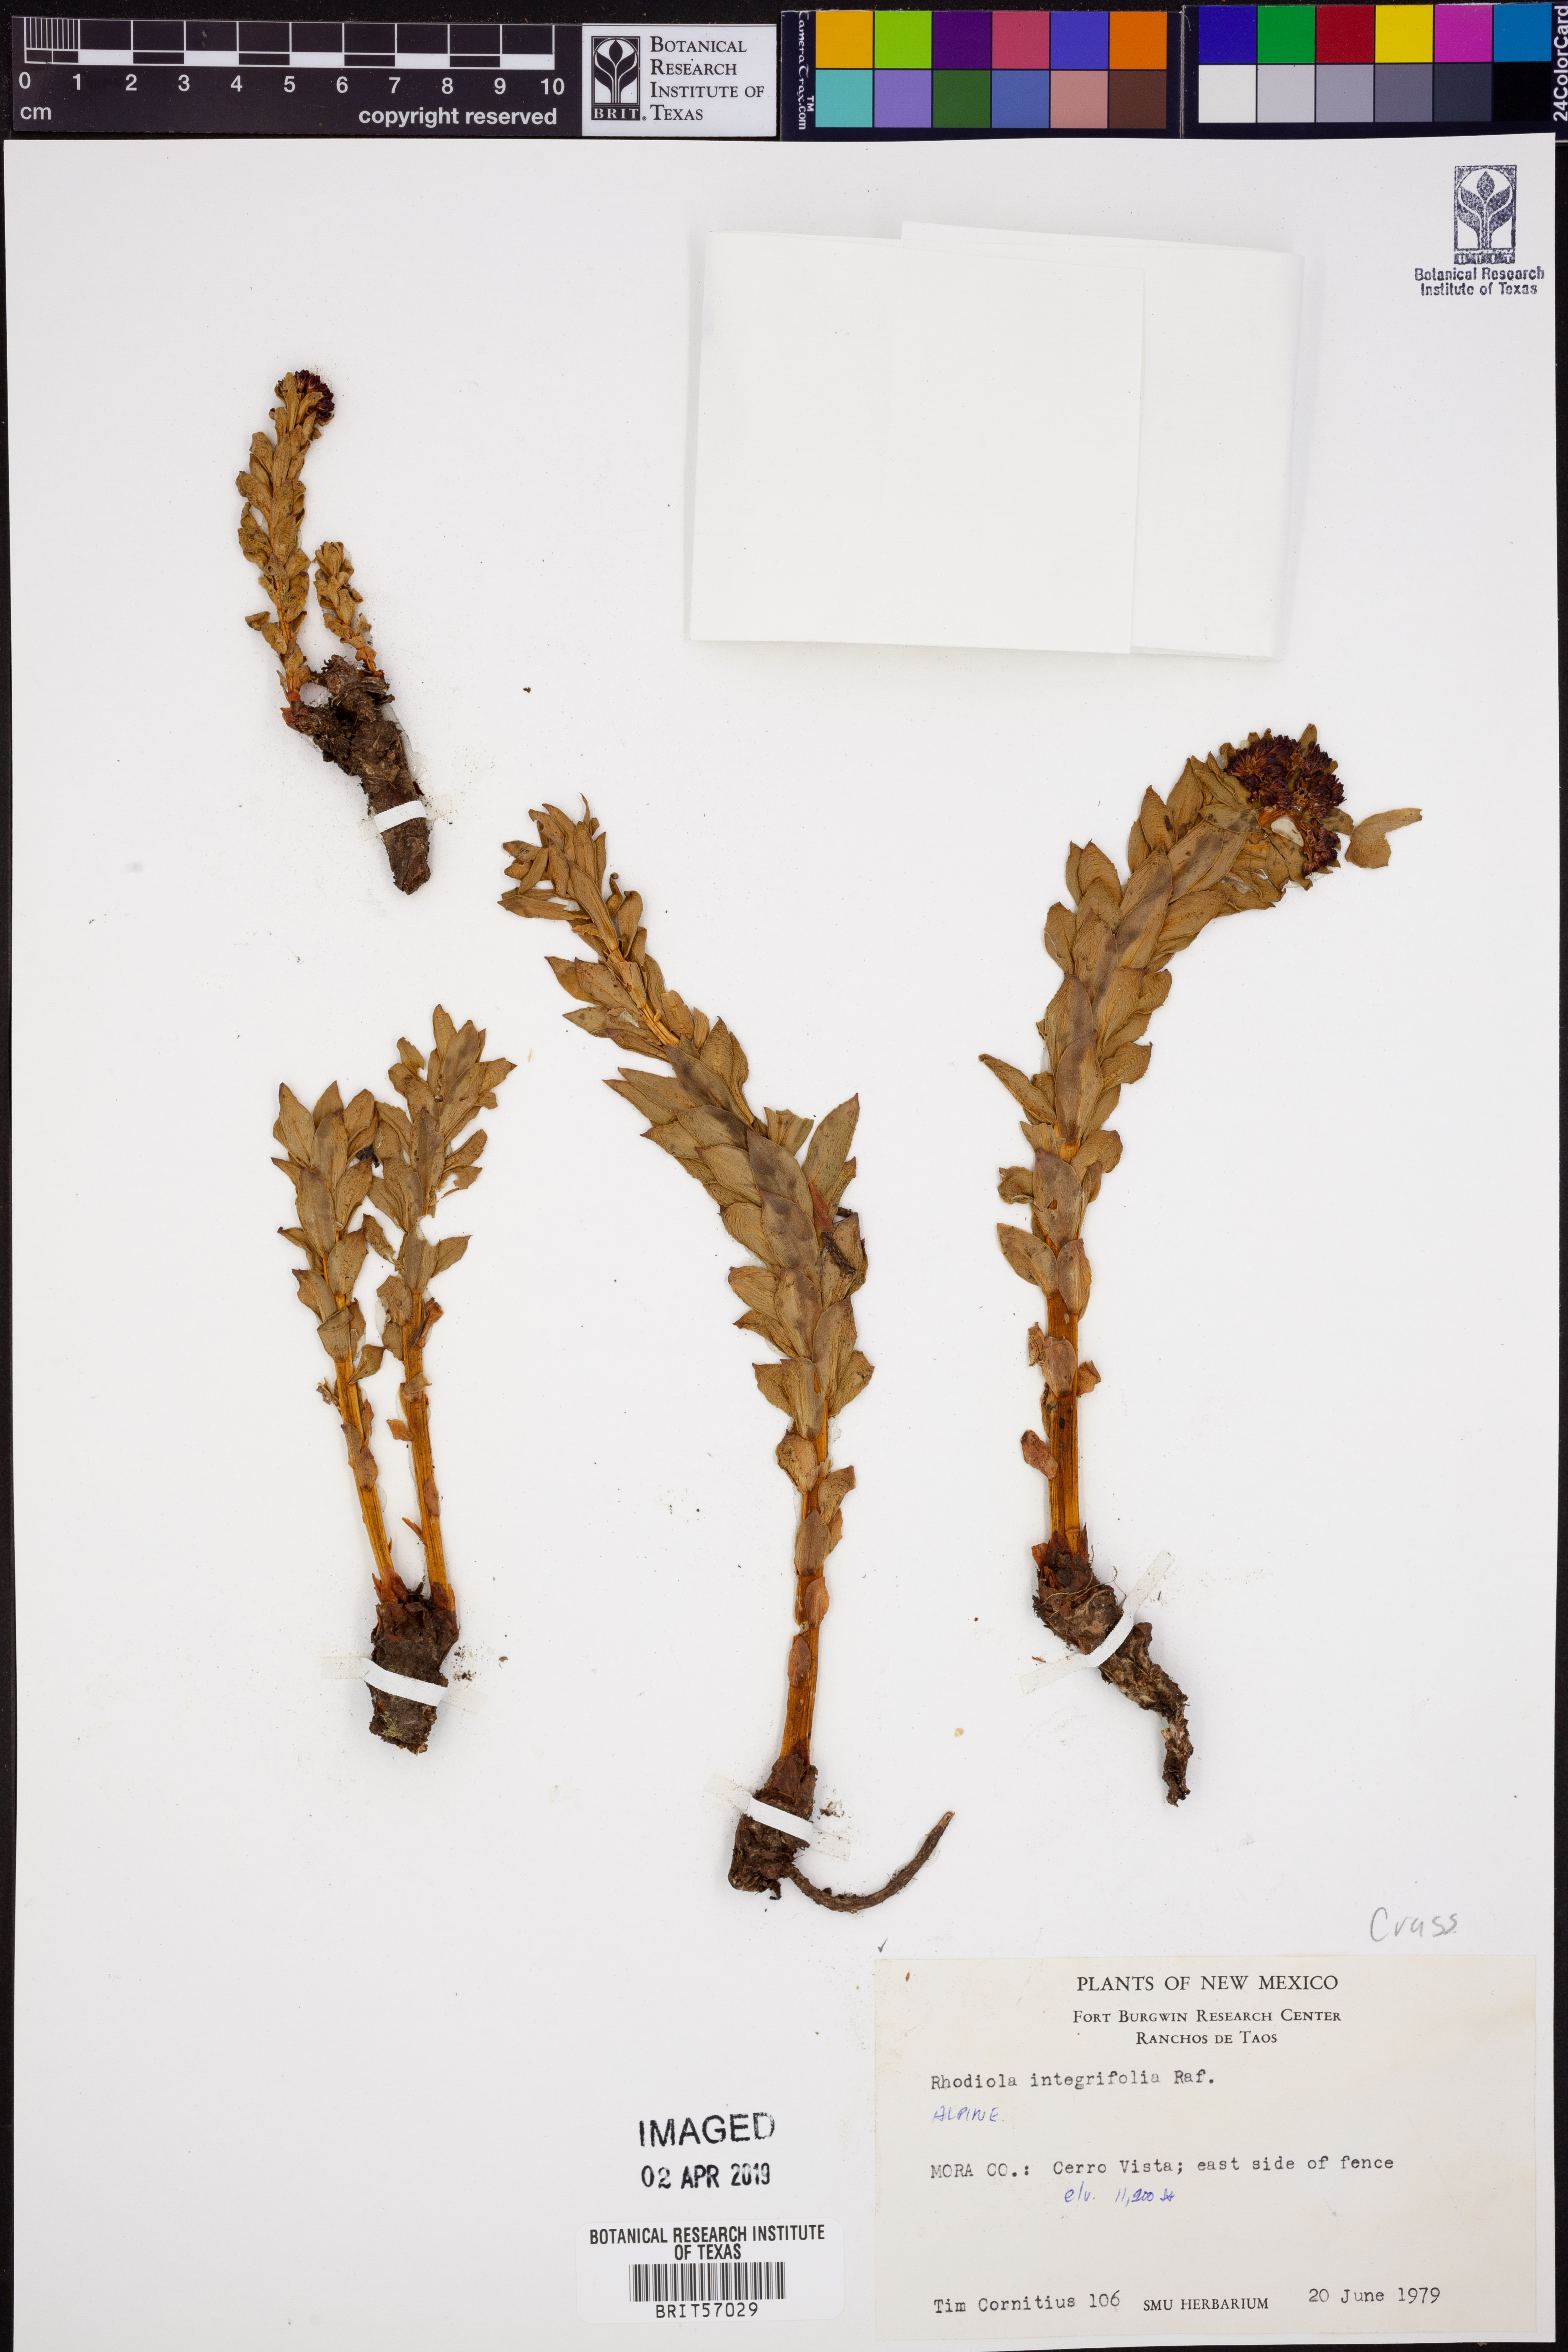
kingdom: Plantae
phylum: Tracheophyta
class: Magnoliopsida
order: Saxifragales
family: Crassulaceae
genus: Rhodiola
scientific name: Rhodiola integrifolia
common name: Western roseroot
